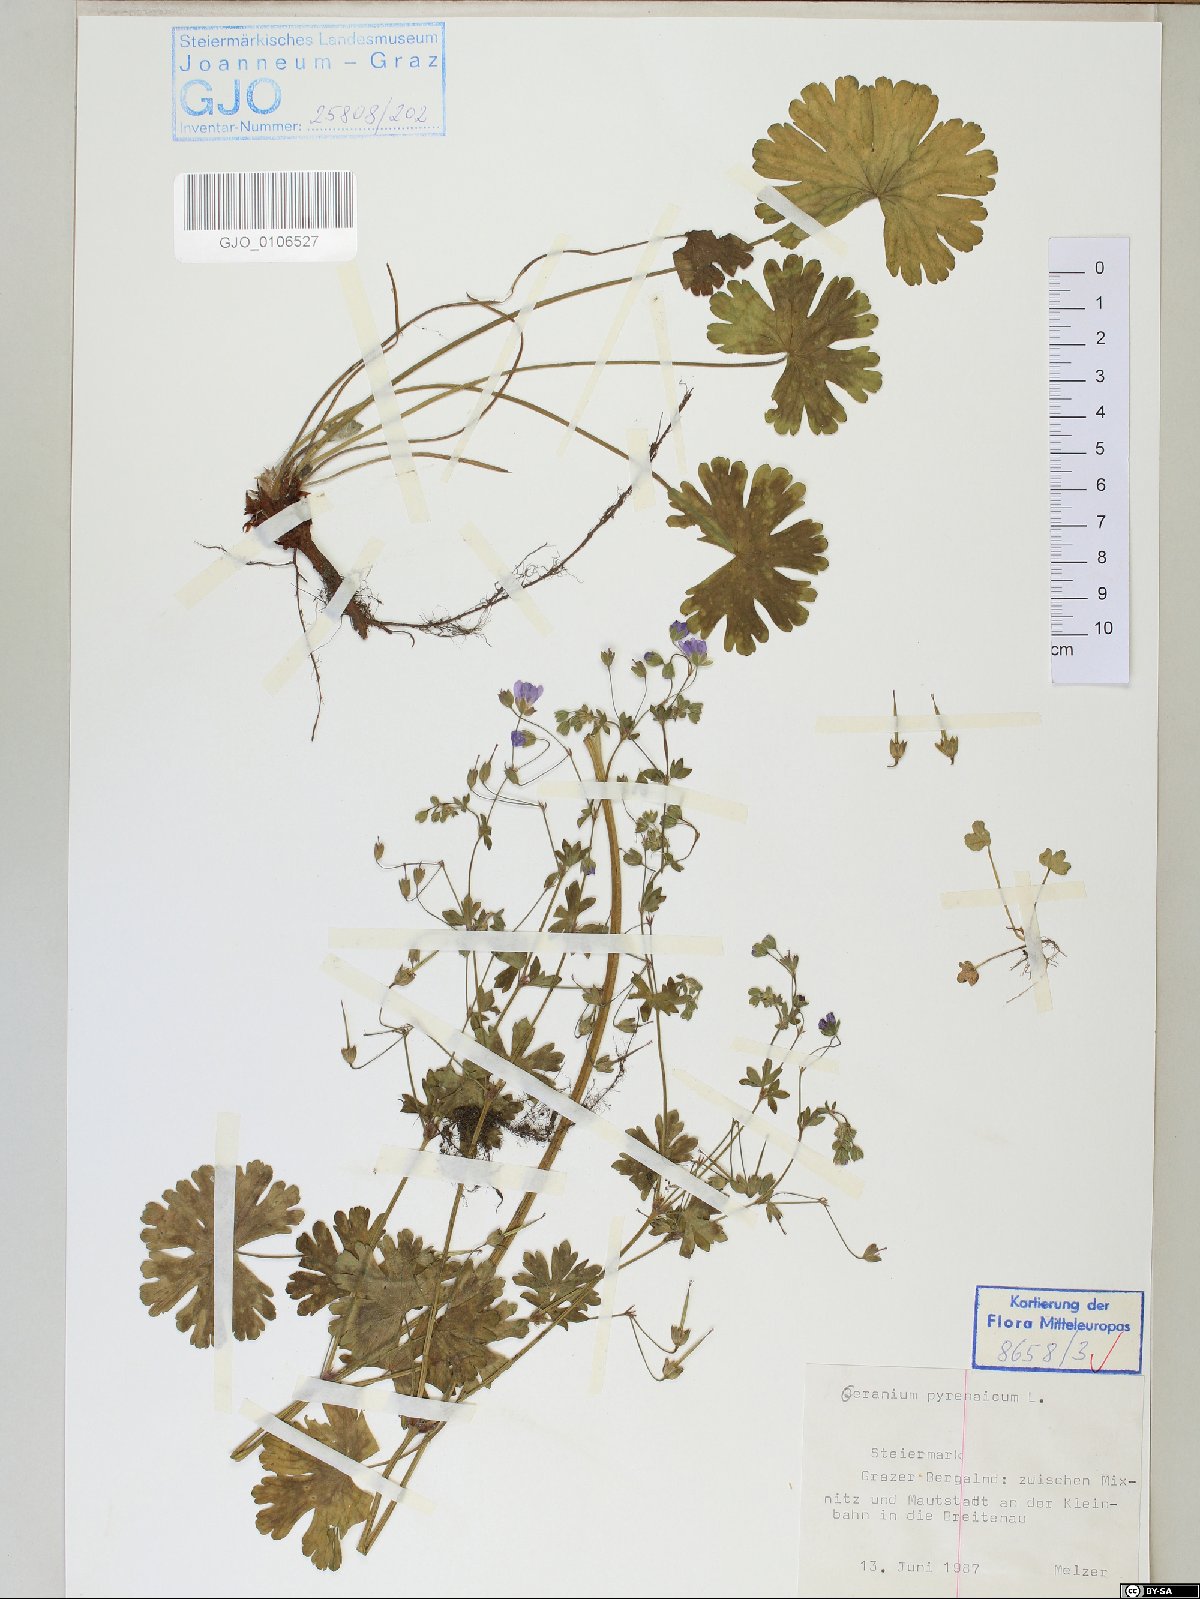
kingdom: Plantae
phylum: Tracheophyta
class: Magnoliopsida
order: Geraniales
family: Geraniaceae
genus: Geranium
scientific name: Geranium pyrenaicum
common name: Hedgerow crane's-bill
